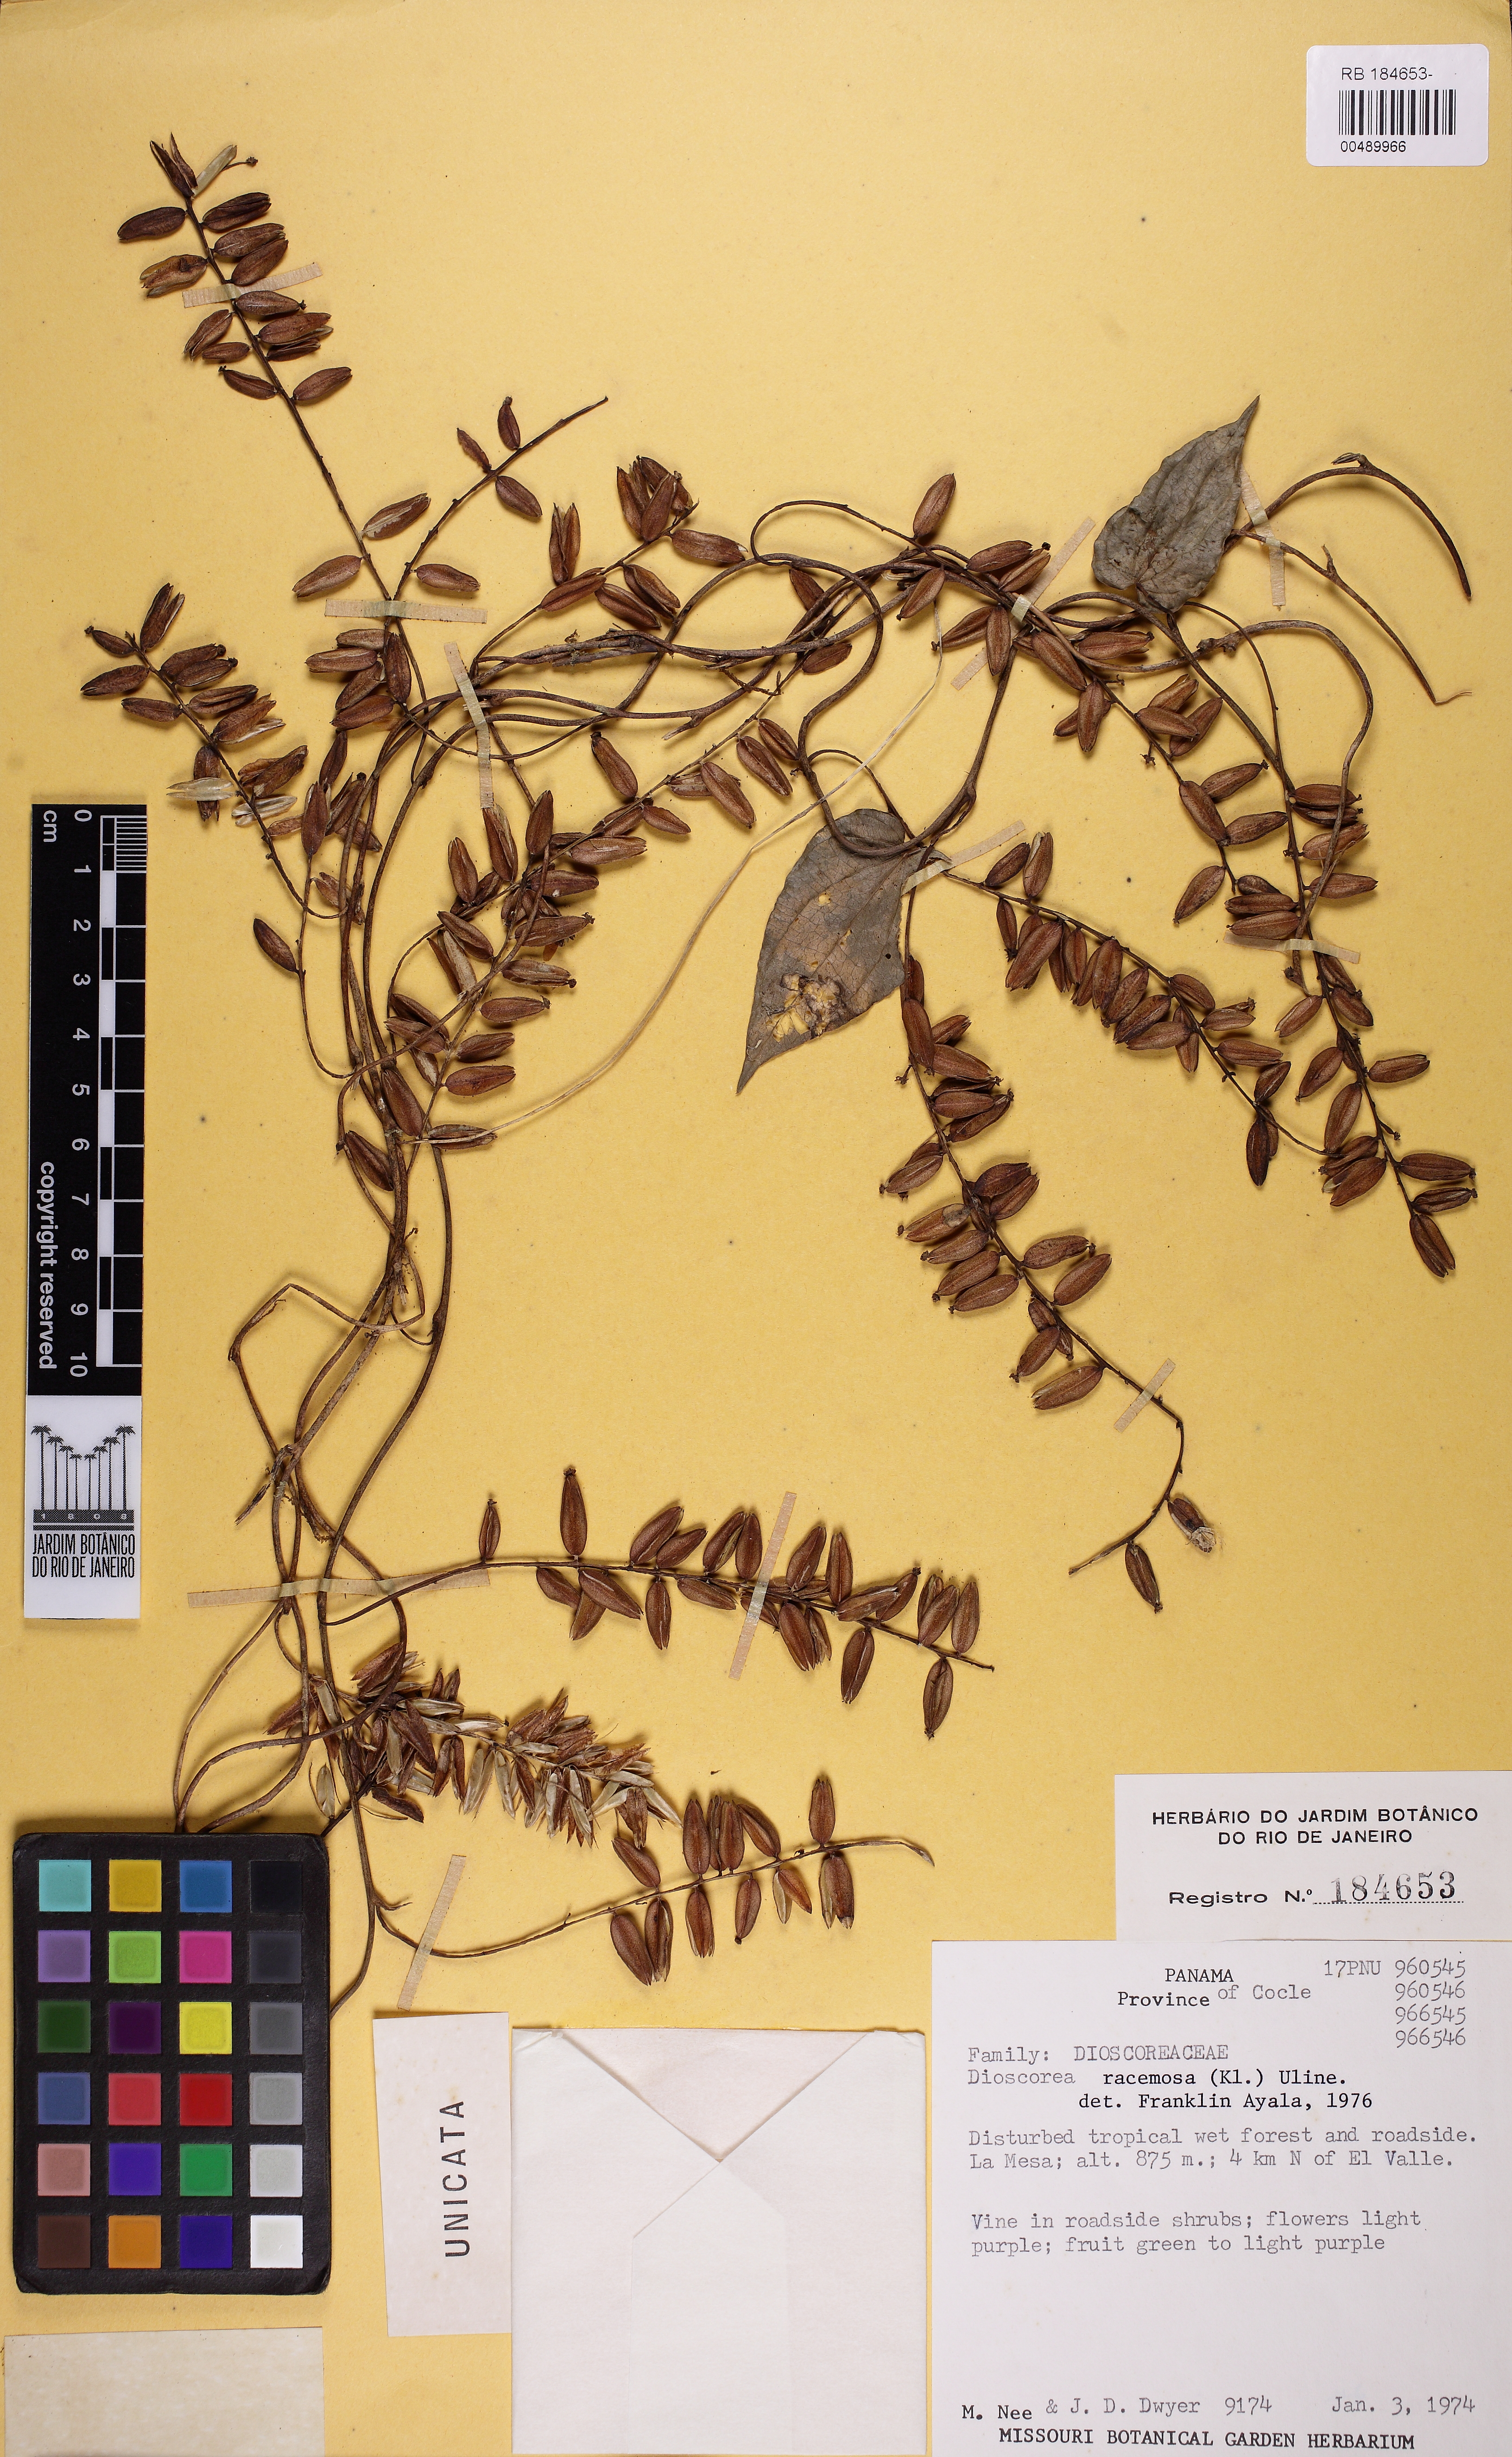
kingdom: Plantae
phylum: Tracheophyta
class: Liliopsida
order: Dioscoreales
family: Dioscoreaceae
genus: Dioscorea
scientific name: Dioscorea racemosa
